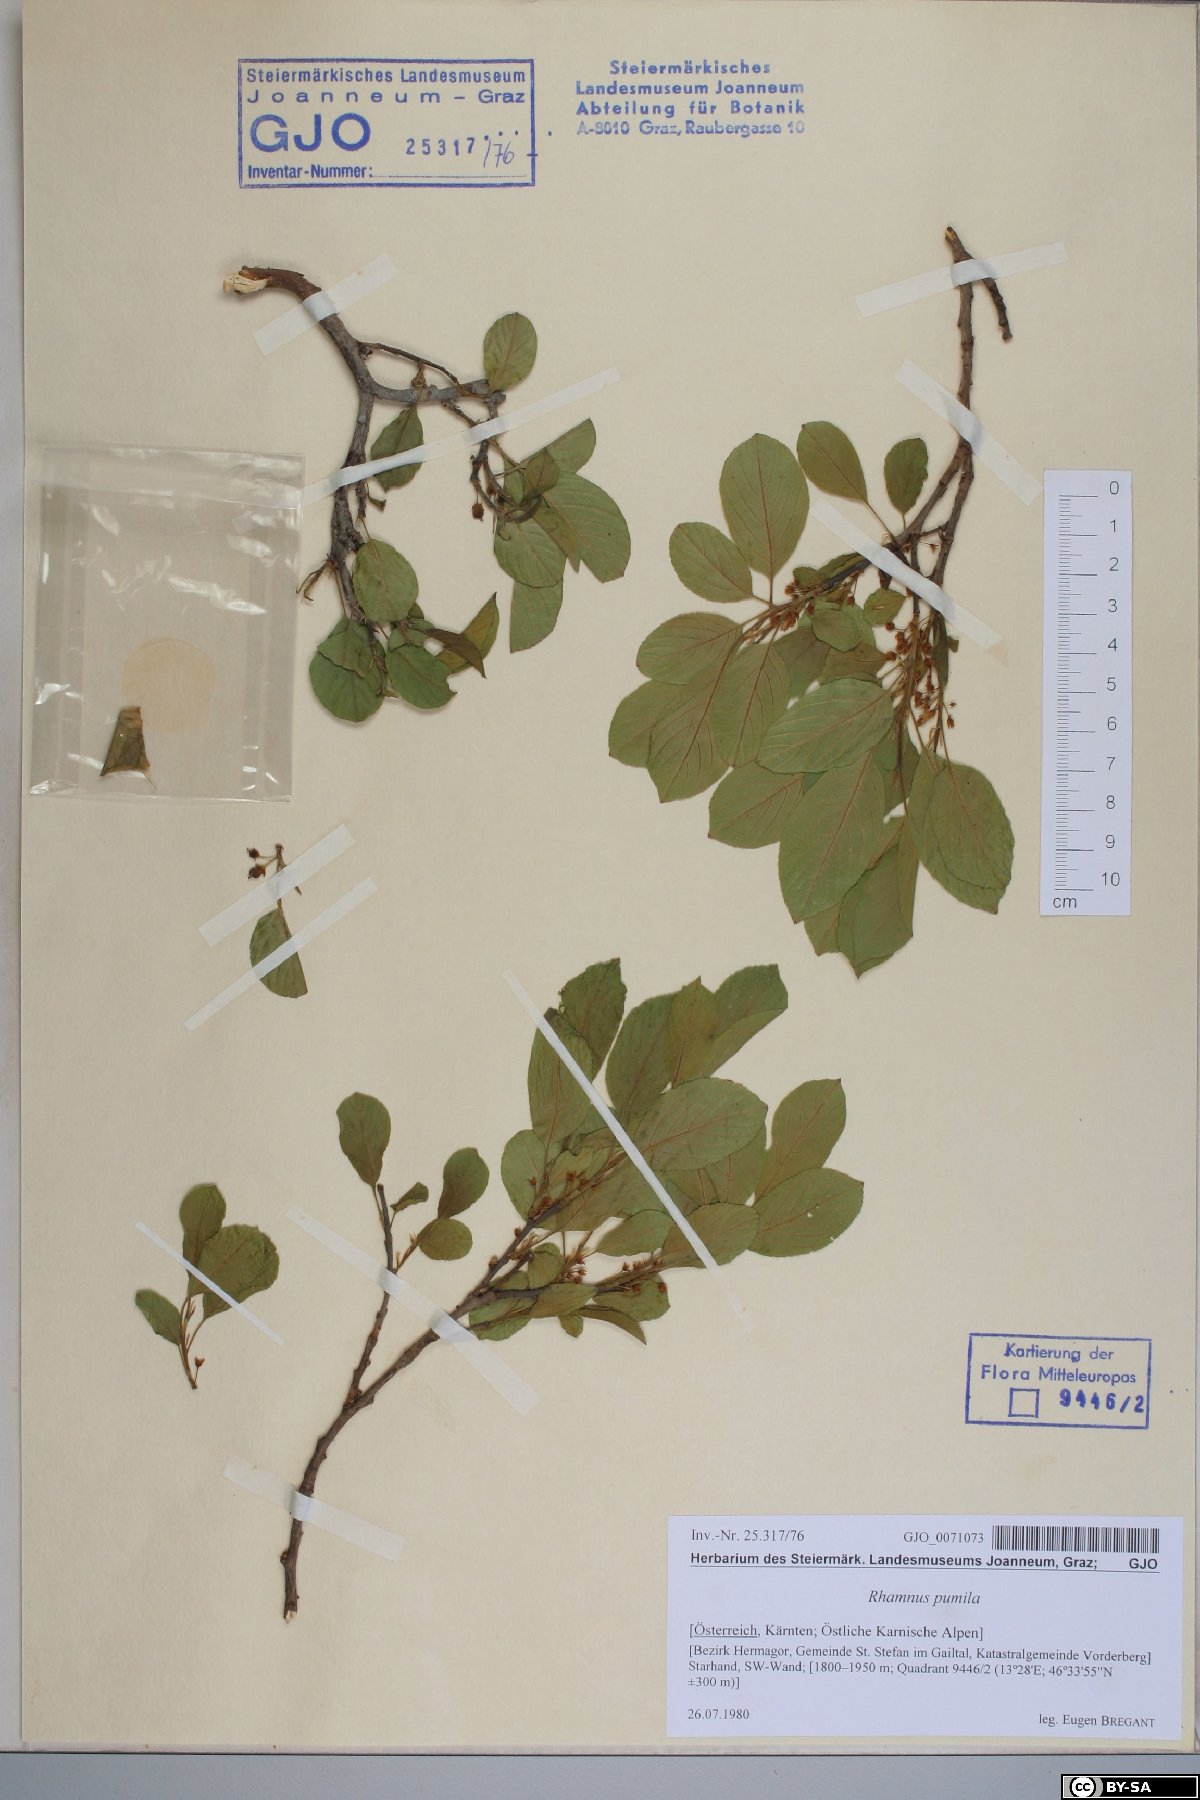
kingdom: Plantae
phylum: Tracheophyta
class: Magnoliopsida
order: Rosales
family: Rhamnaceae
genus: Atadinus
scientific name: Atadinus pumilus
